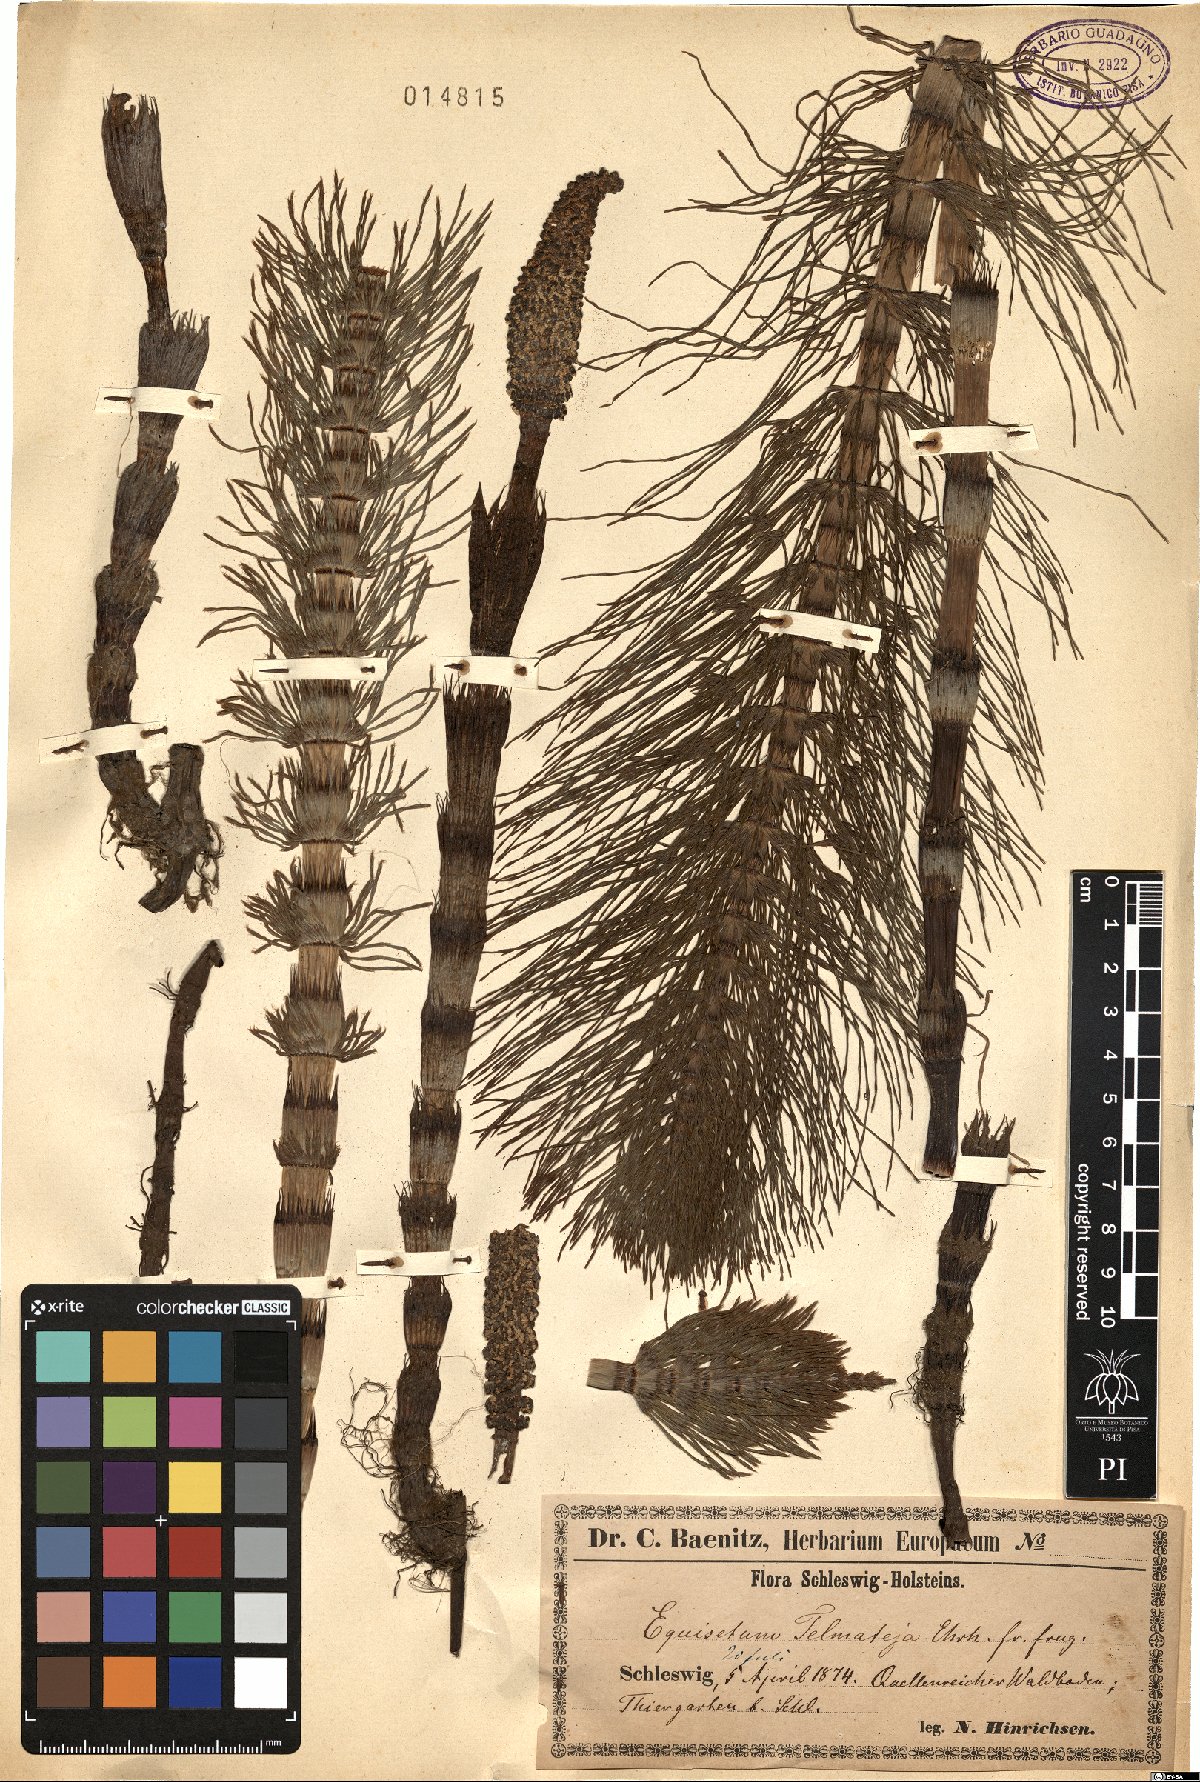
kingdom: Plantae
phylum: Tracheophyta
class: Polypodiopsida
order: Equisetales
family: Equisetaceae
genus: Equisetum
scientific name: Equisetum telmateia
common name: Great horsetail
